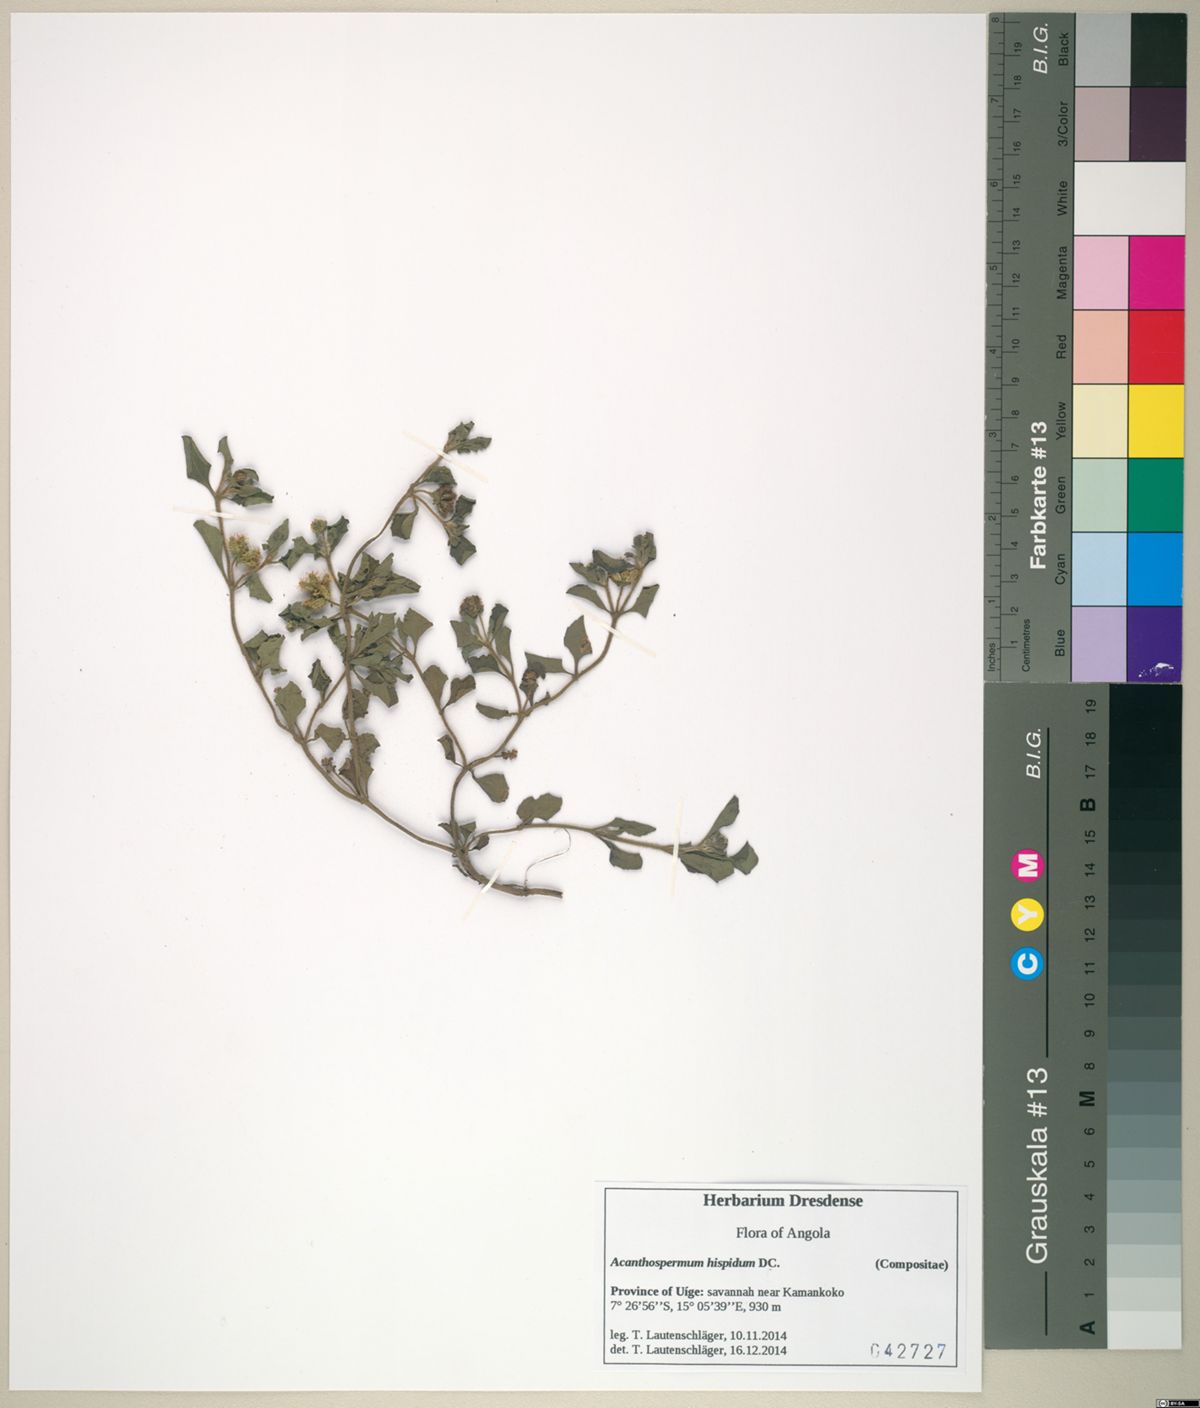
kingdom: Plantae
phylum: Tracheophyta
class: Magnoliopsida
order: Asterales
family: Asteraceae
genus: Acanthospermum
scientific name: Acanthospermum hispidum
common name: Hispid starbur
